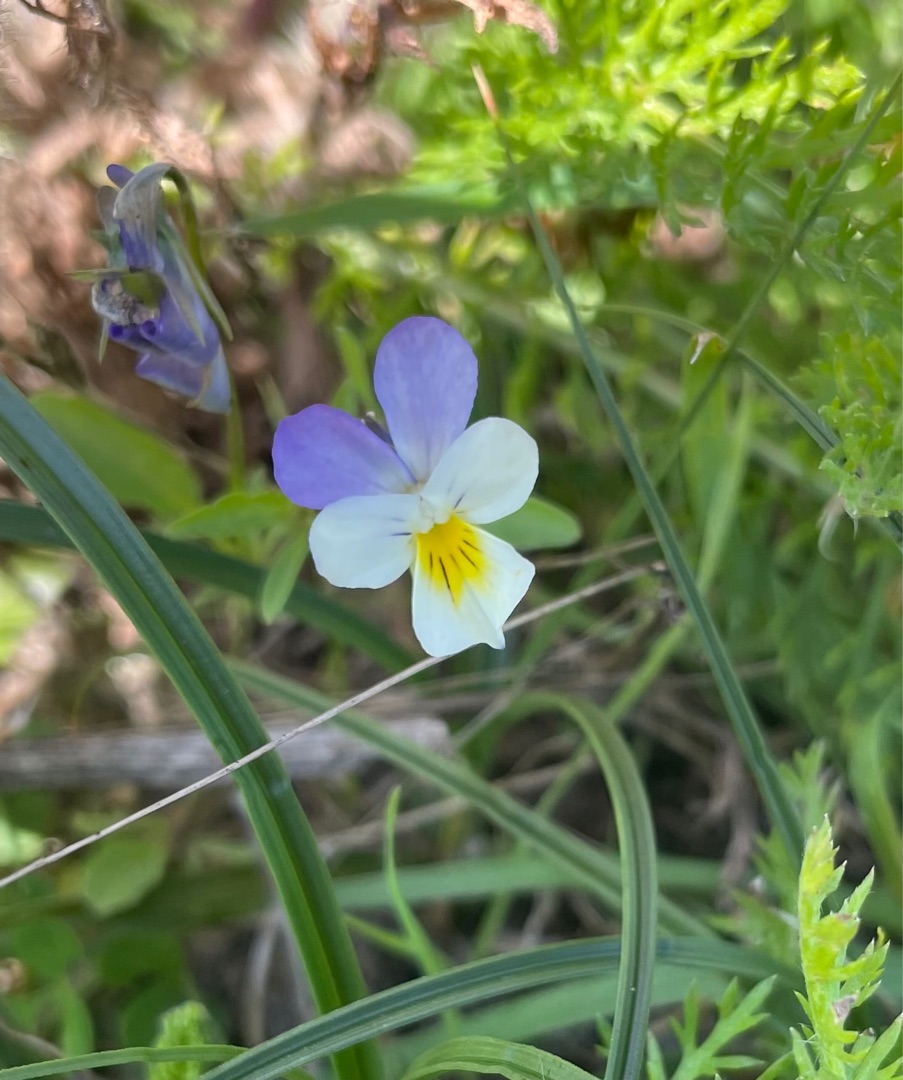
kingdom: Plantae
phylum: Tracheophyta
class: Magnoliopsida
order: Malpighiales
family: Violaceae
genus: Viola
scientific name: Viola tricolor
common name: Stedmoderblomst
